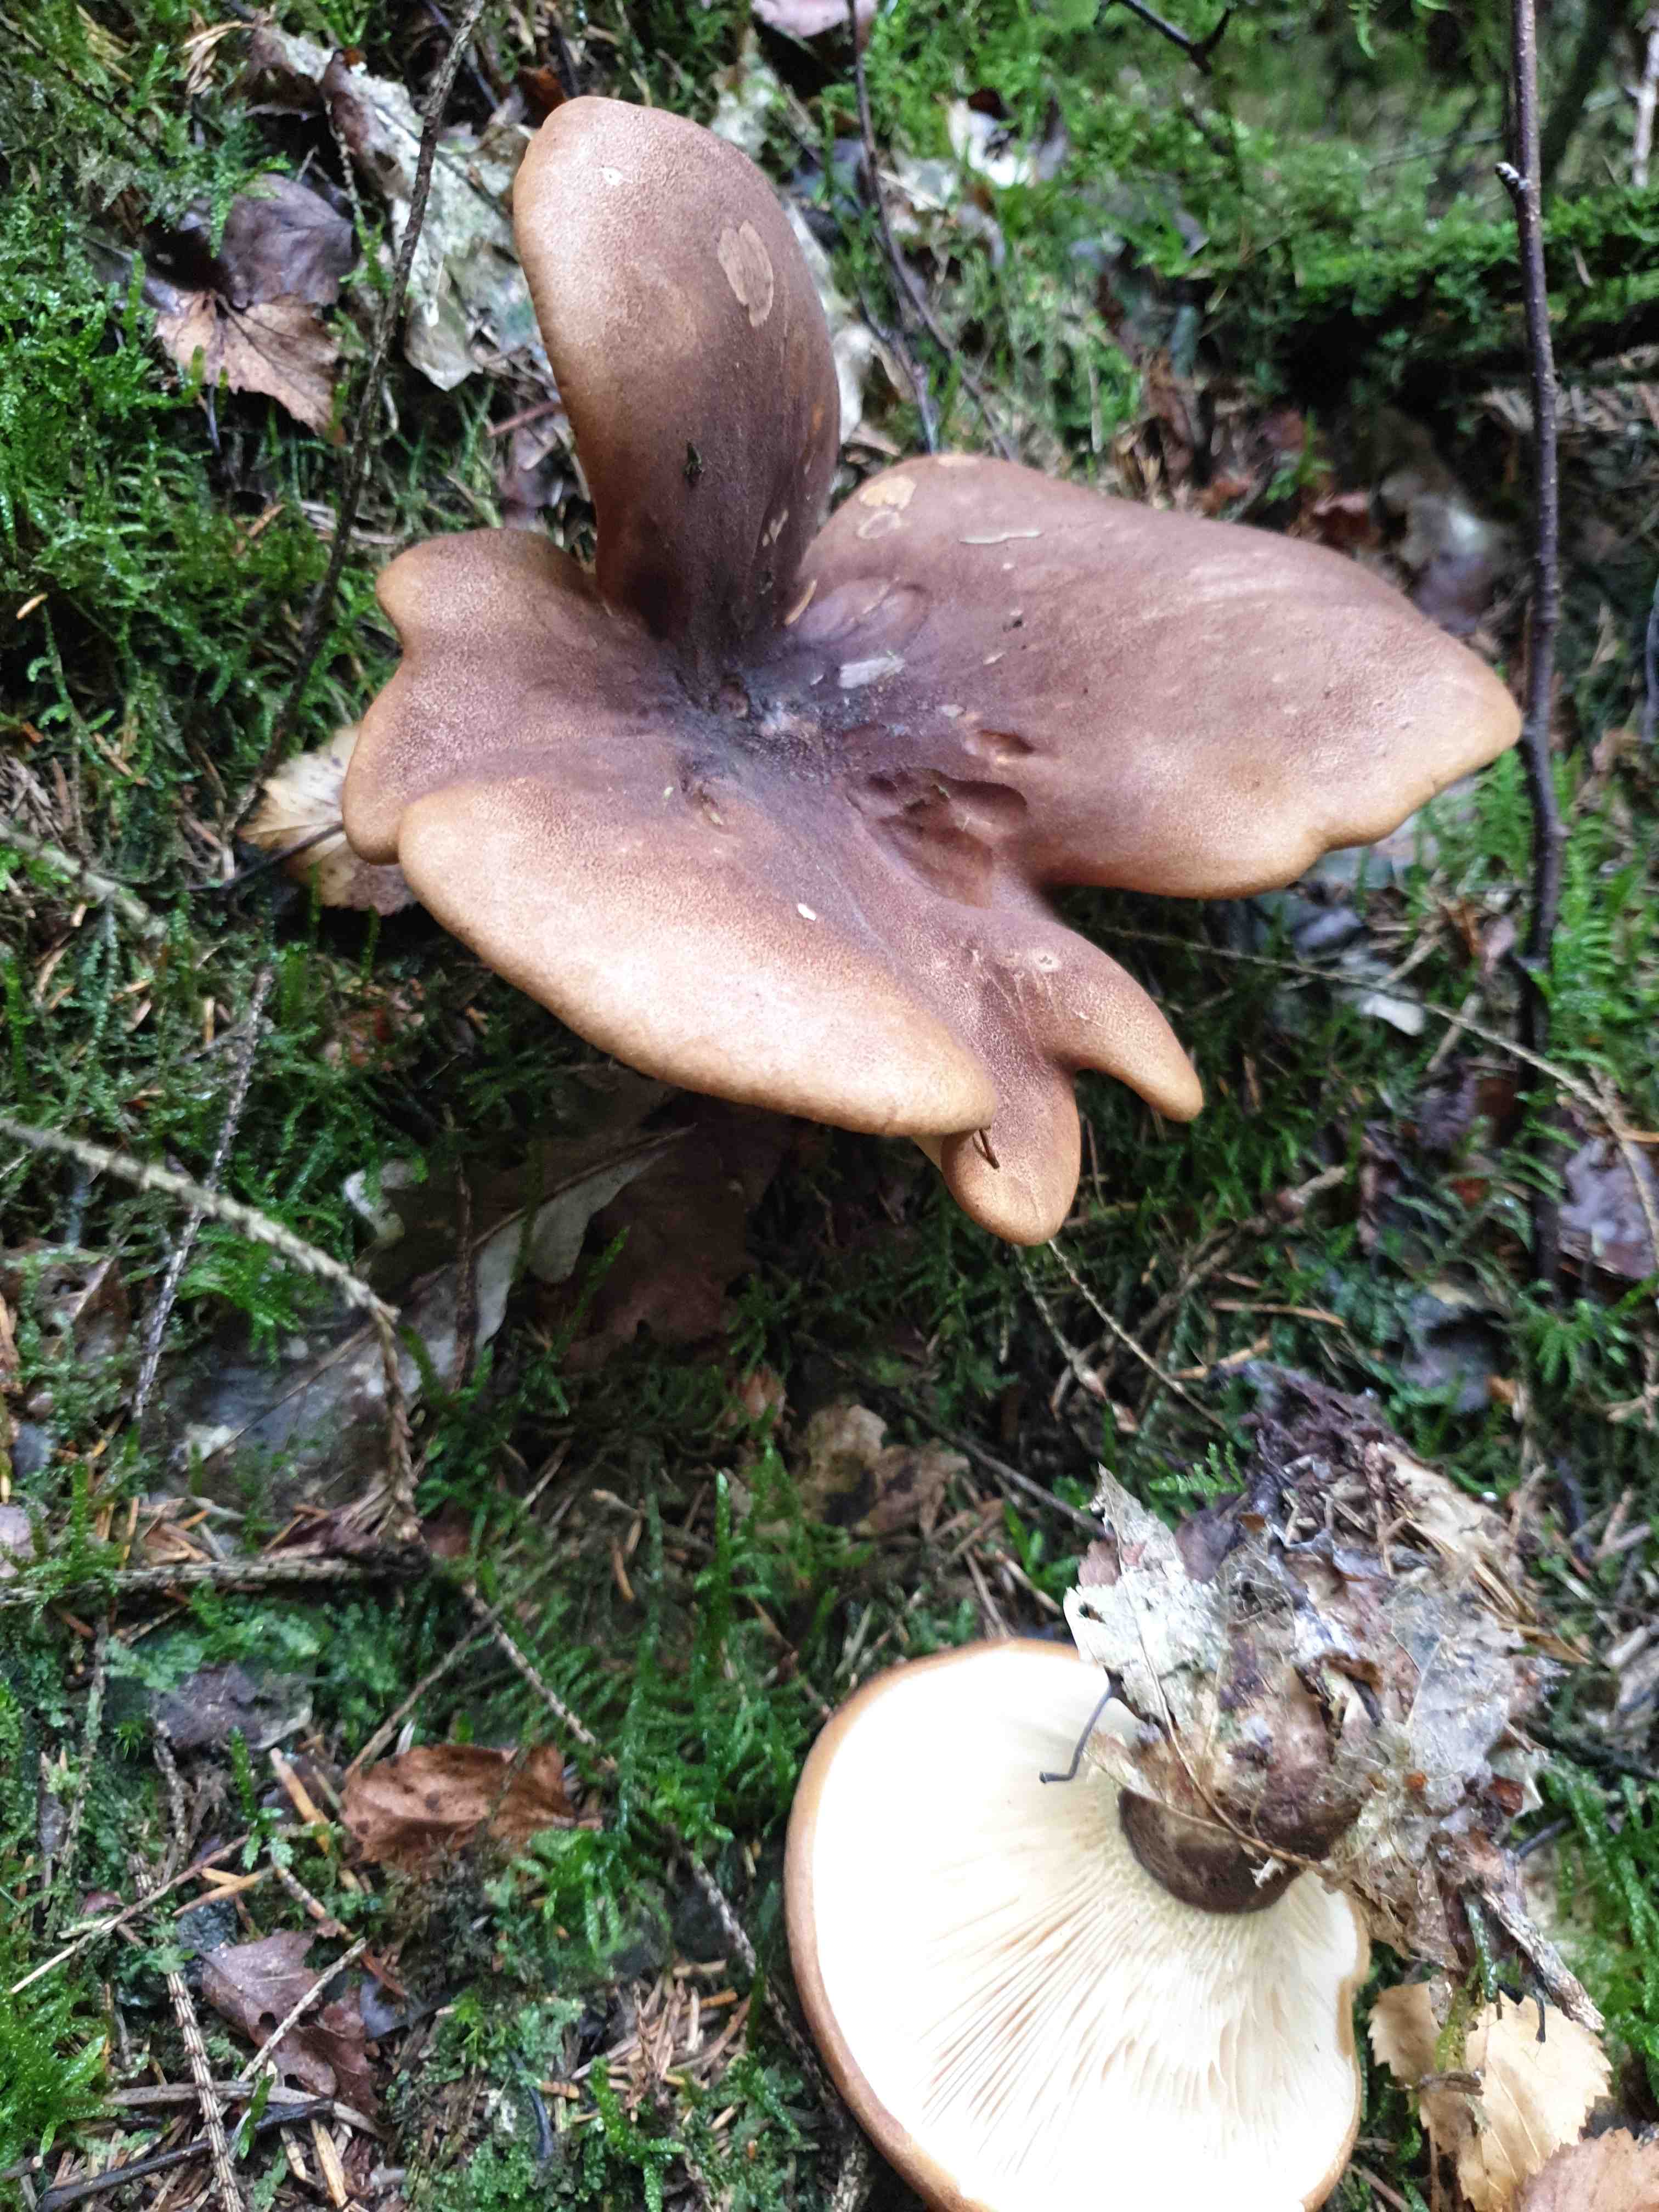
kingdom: Fungi
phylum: Basidiomycota
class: Agaricomycetes
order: Boletales
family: Tapinellaceae
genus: Tapinella
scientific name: Tapinella atrotomentosa
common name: sortfiltet viftesvamp
